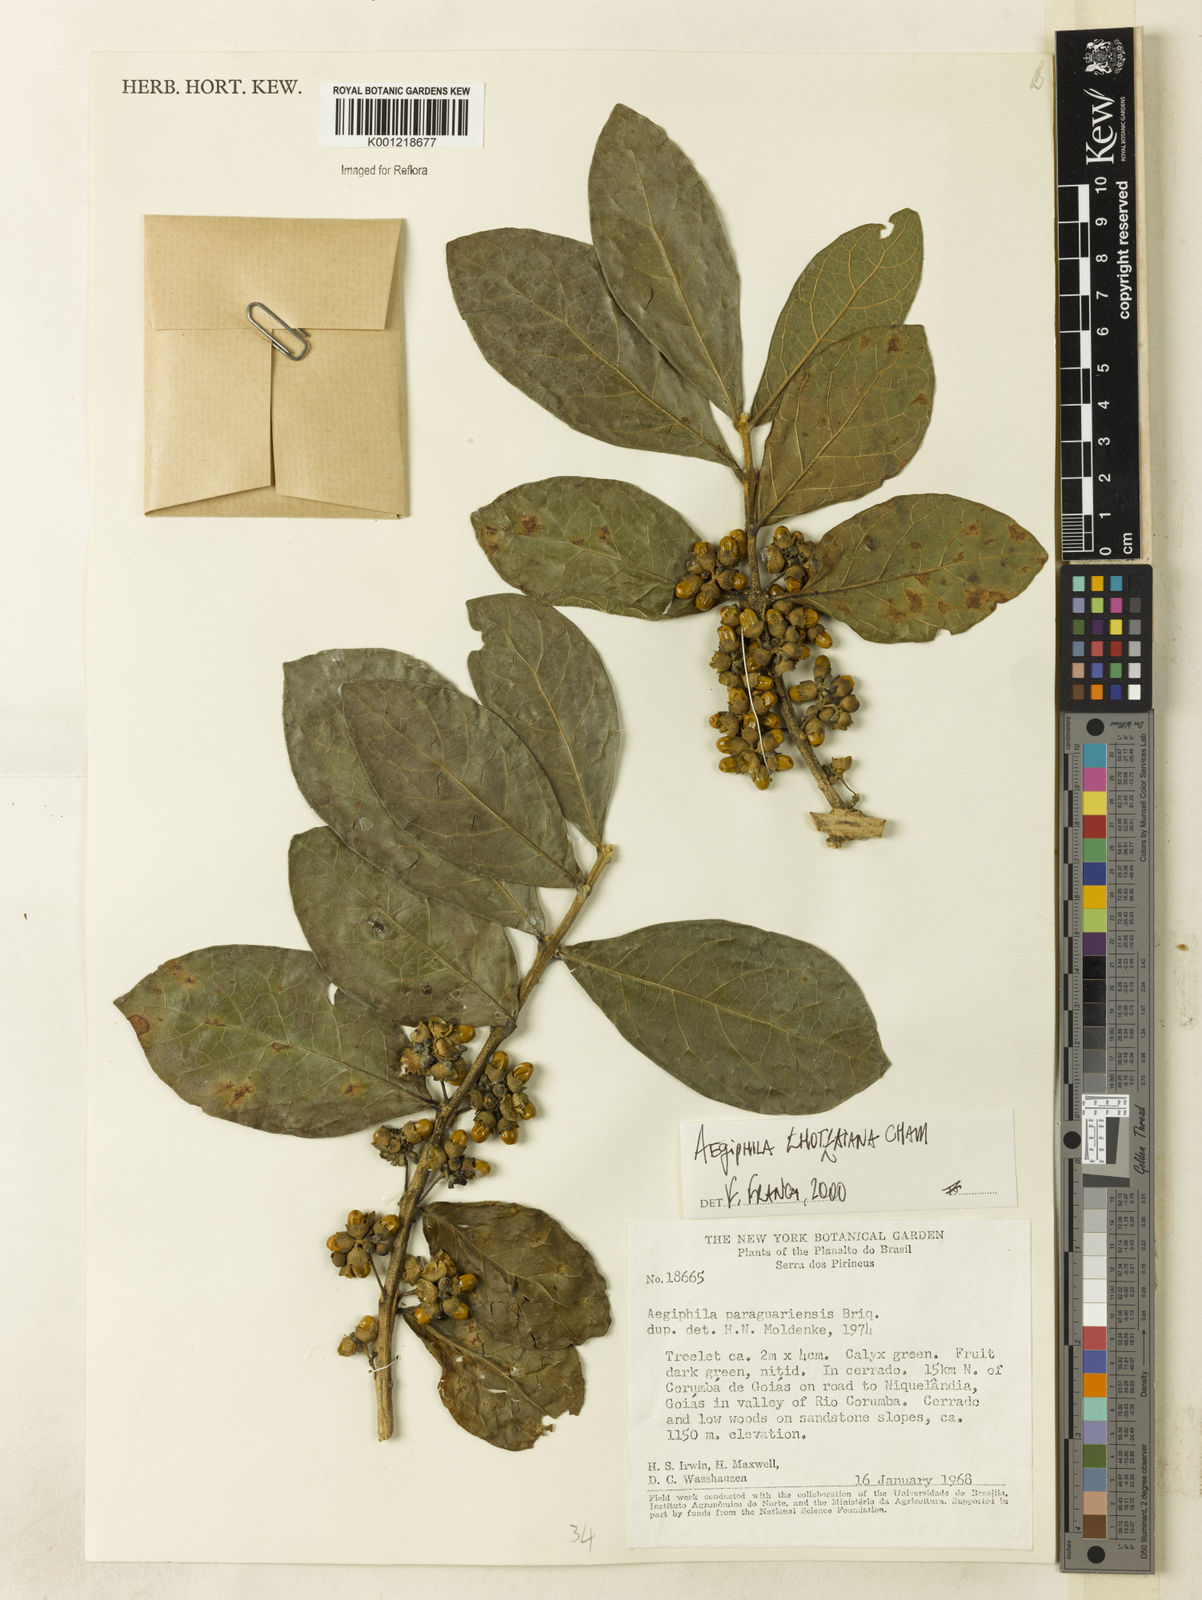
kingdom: Plantae
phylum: Tracheophyta
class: Magnoliopsida
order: Lamiales
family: Lamiaceae
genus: Aegiphila
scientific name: Aegiphila verticillata
